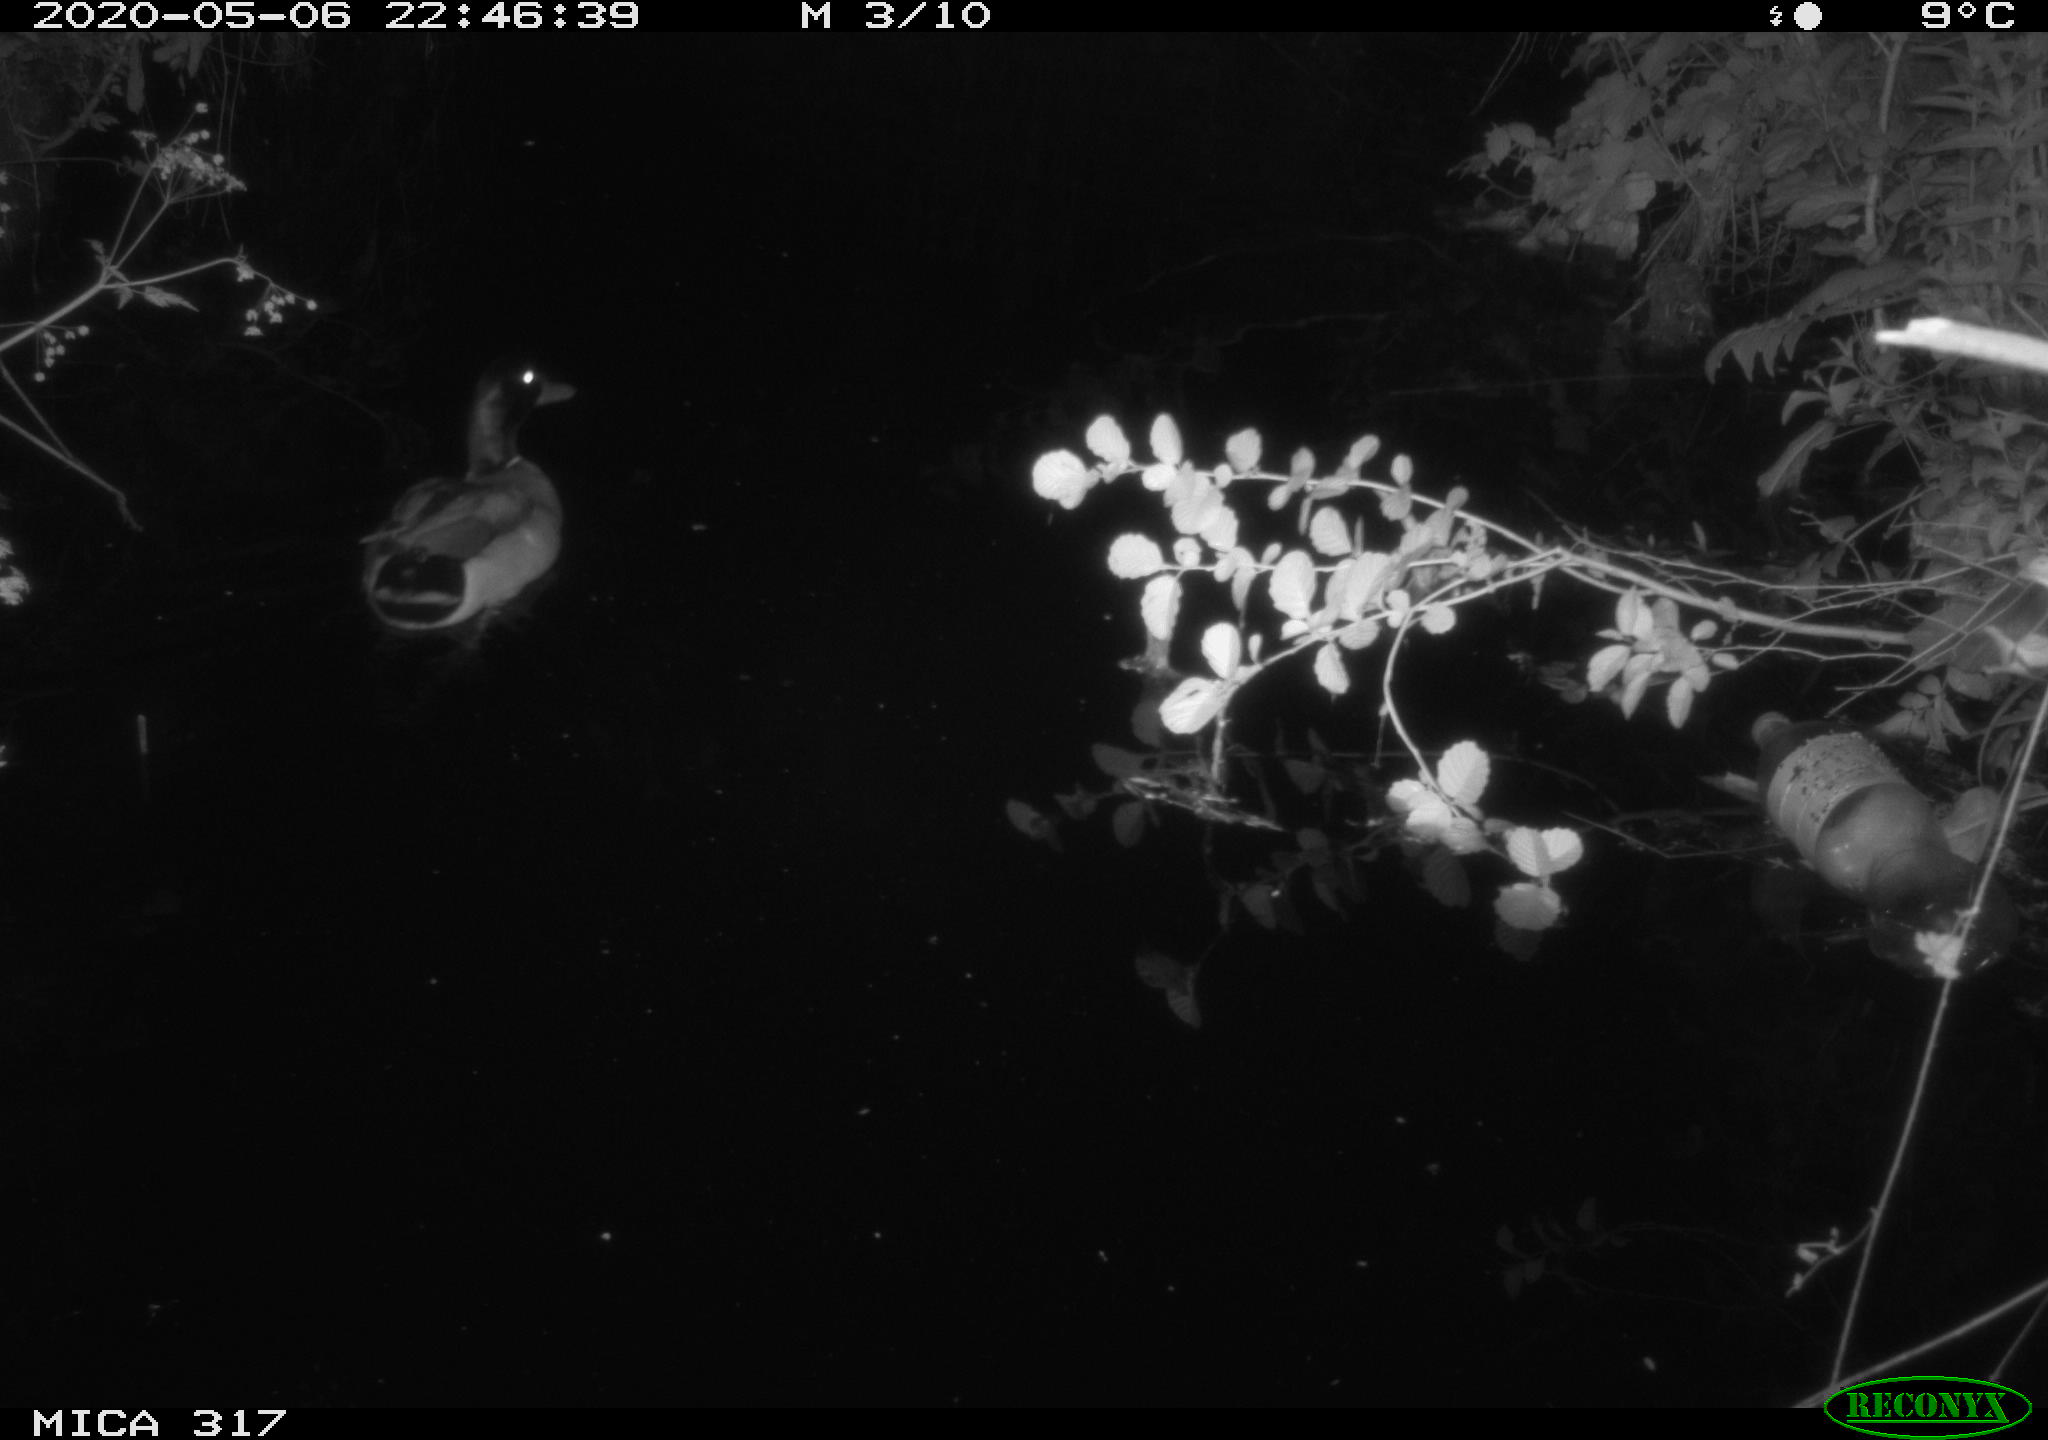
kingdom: Animalia
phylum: Chordata
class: Aves
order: Anseriformes
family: Anatidae
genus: Anas
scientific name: Anas platyrhynchos
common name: Mallard
